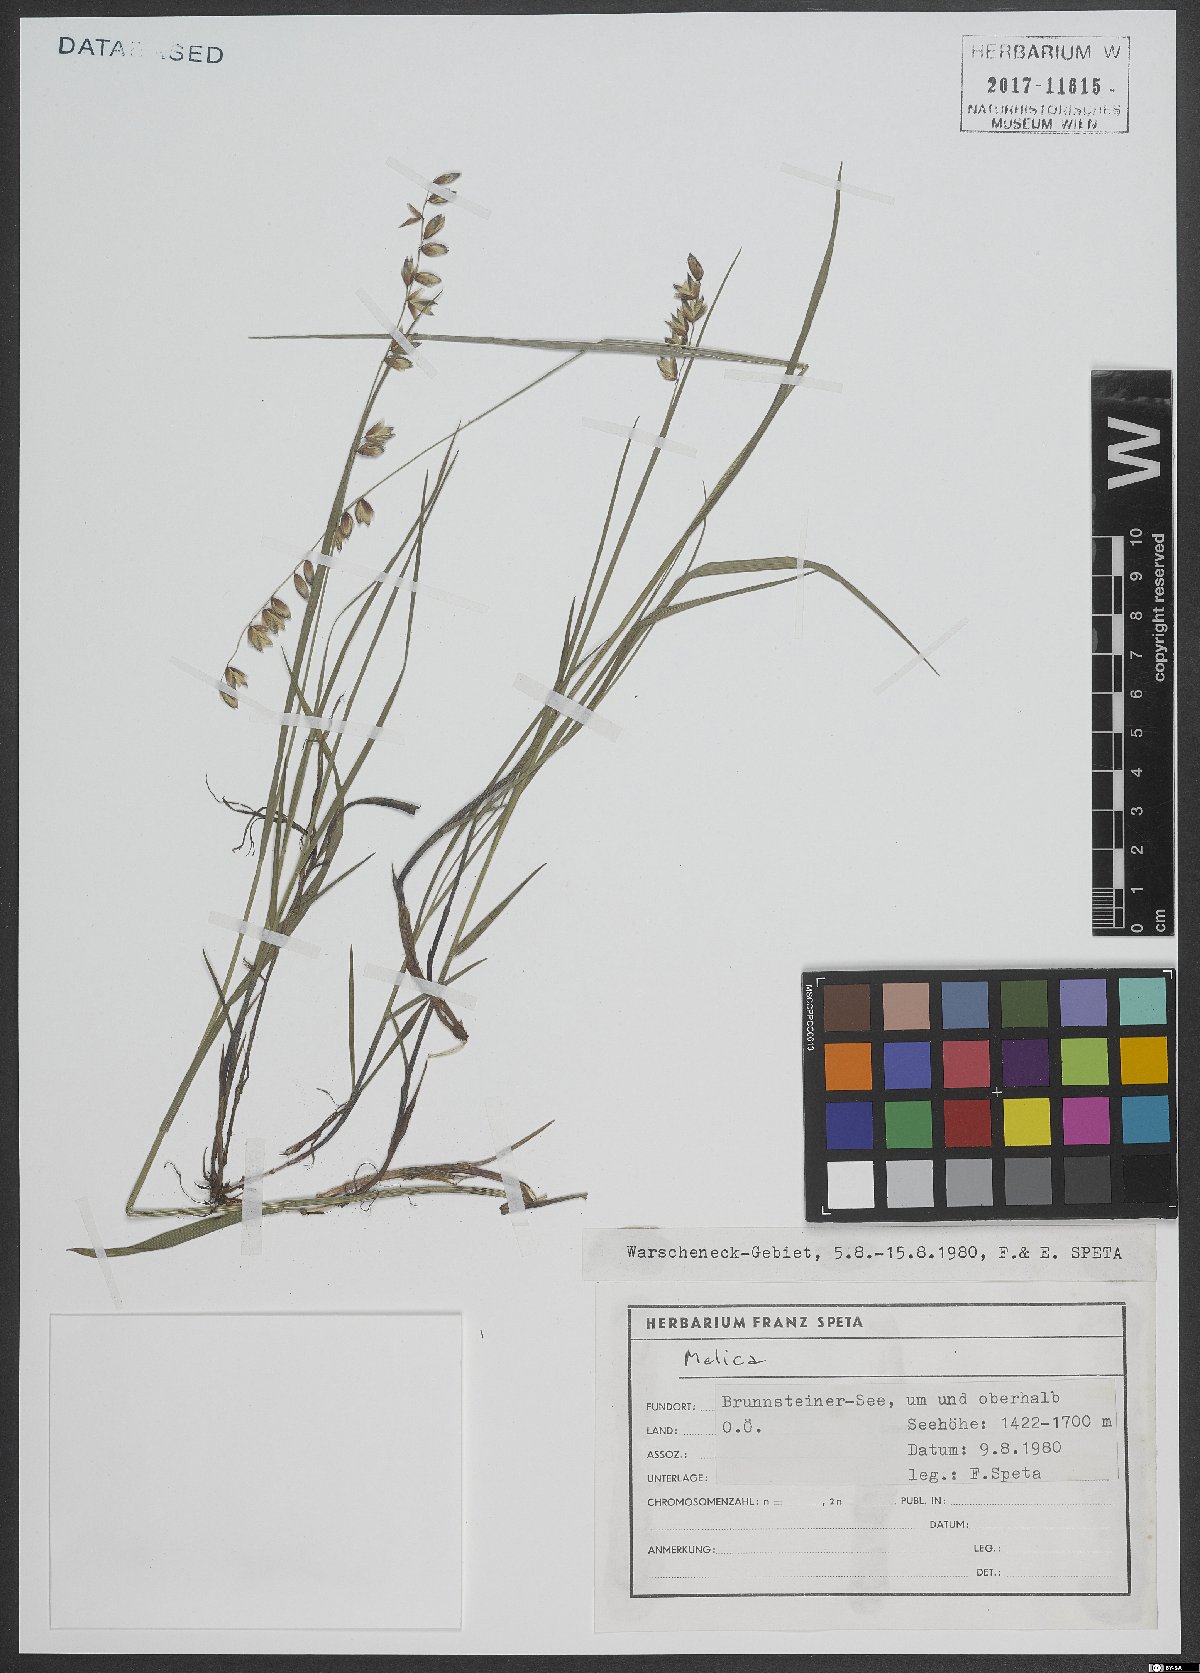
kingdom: Plantae
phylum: Tracheophyta
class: Liliopsida
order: Poales
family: Poaceae
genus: Melica
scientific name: Melica
